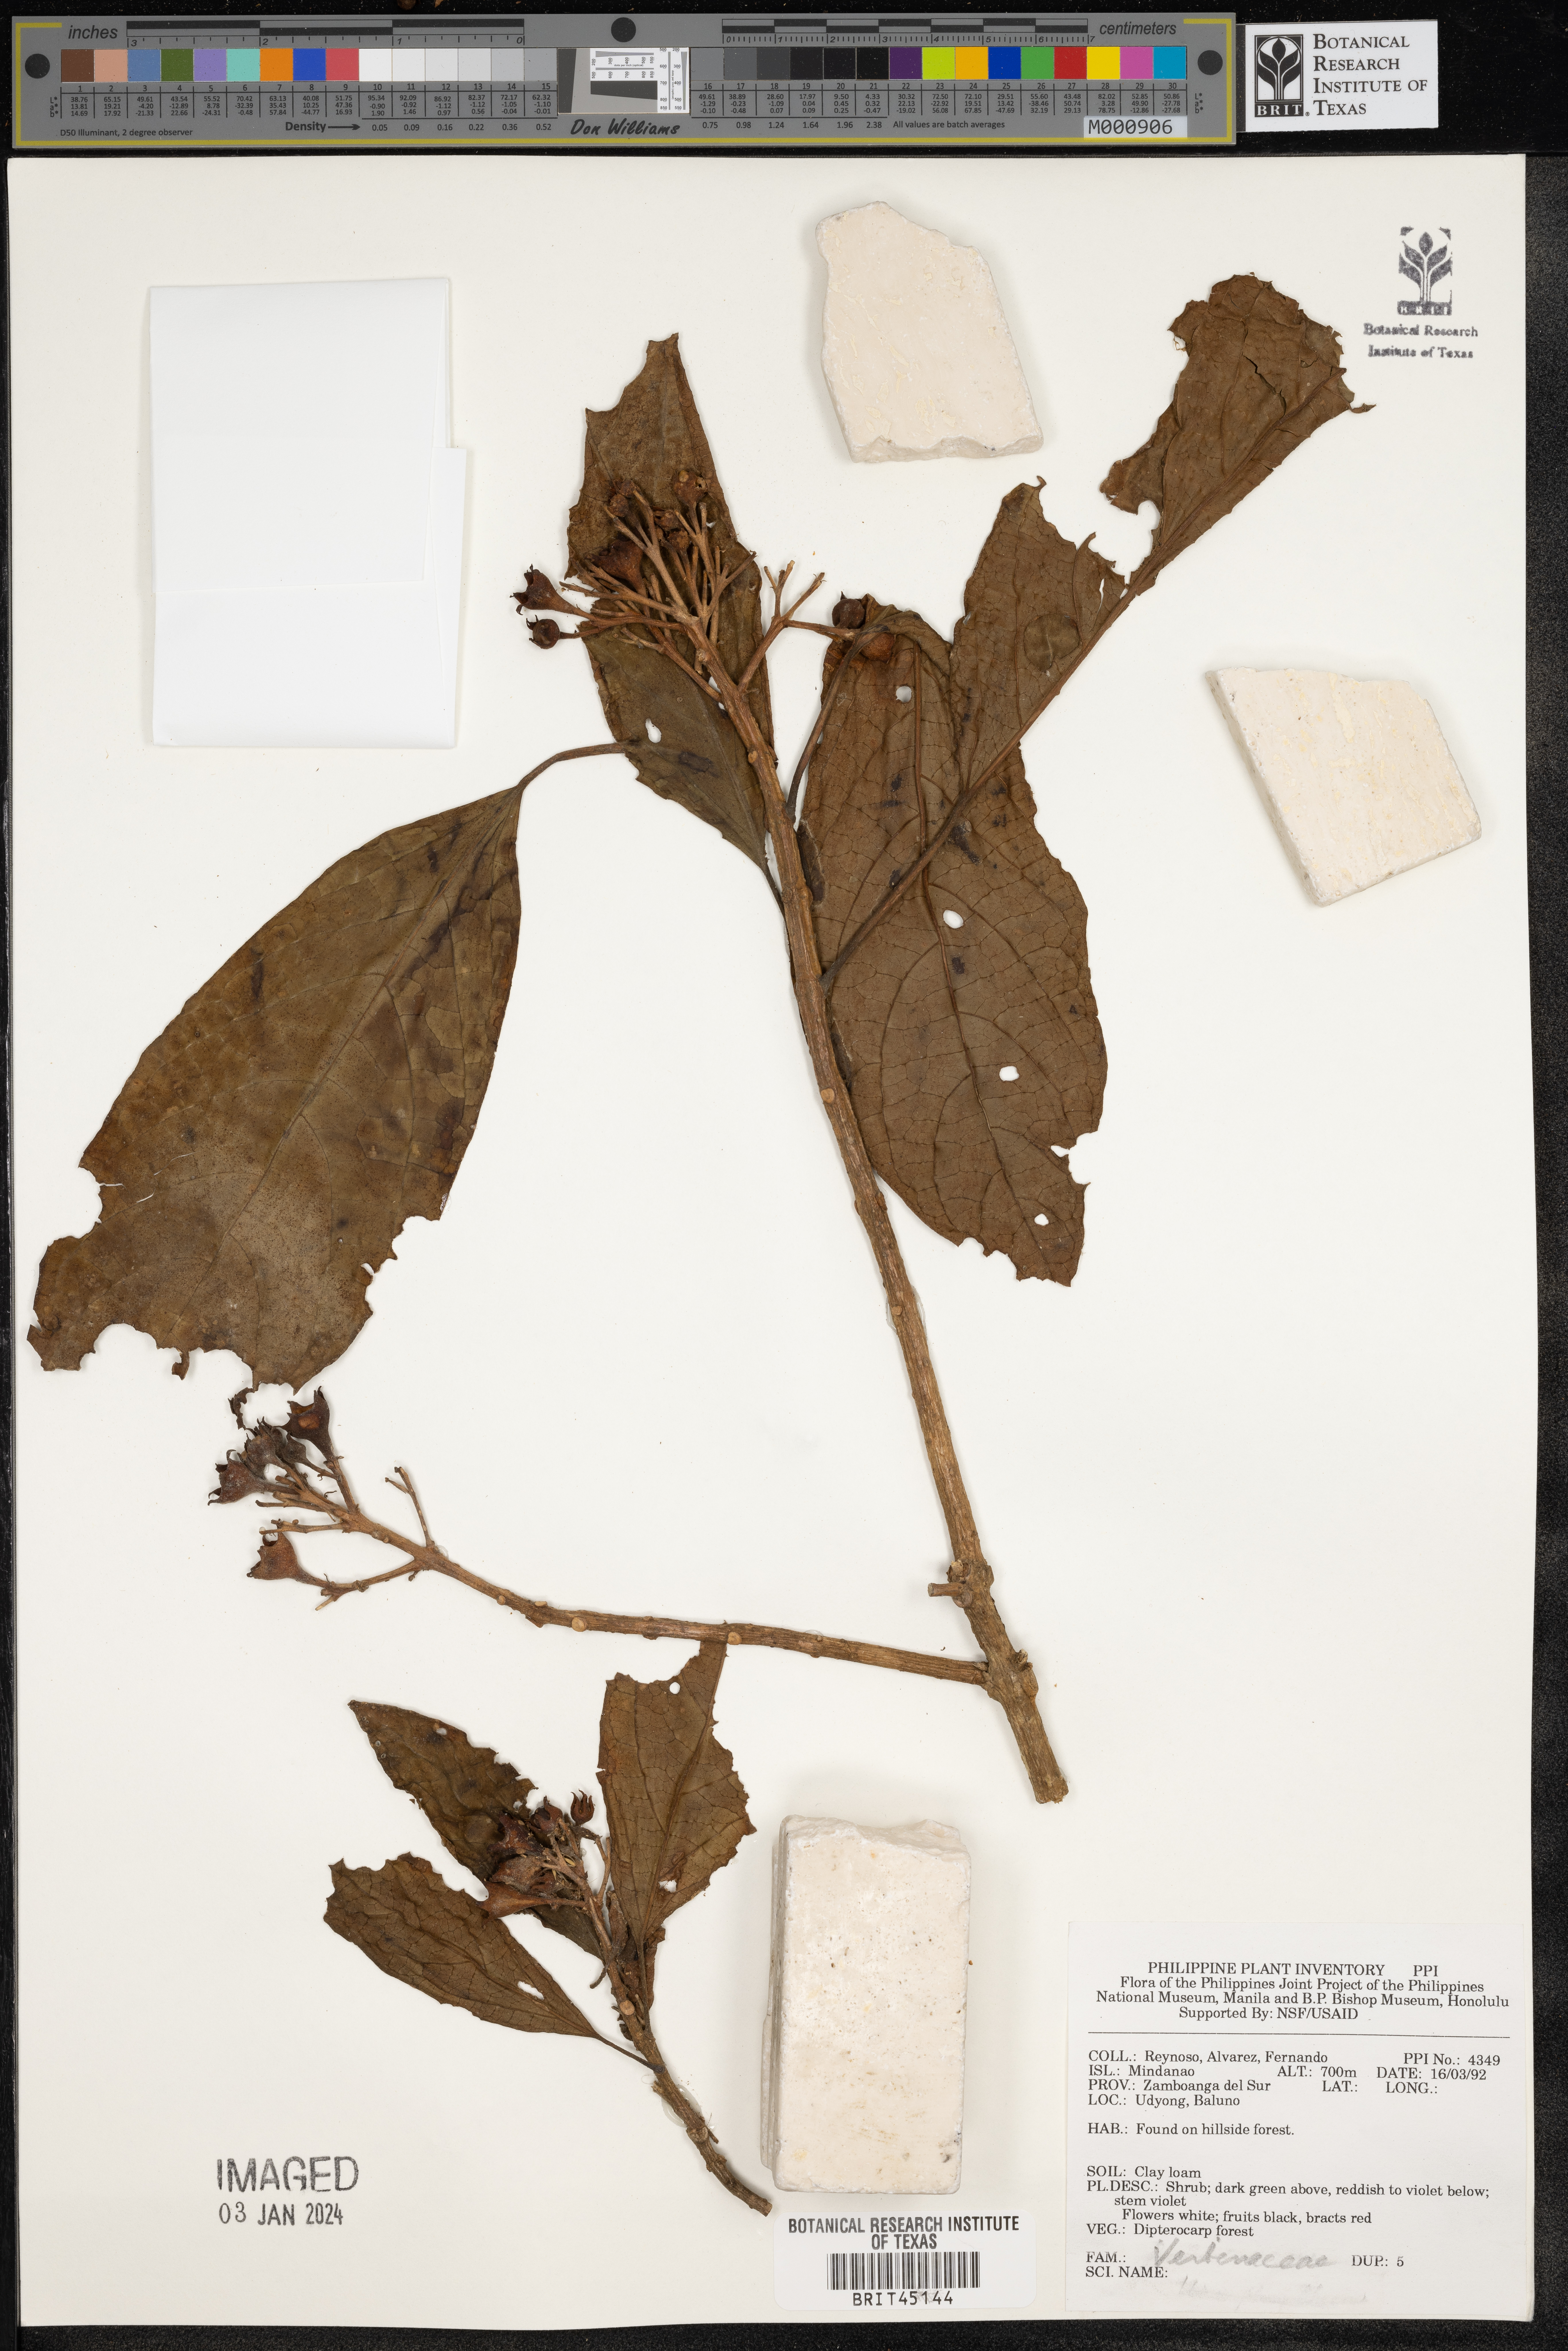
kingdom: Plantae
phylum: Tracheophyta
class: Magnoliopsida
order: Lamiales
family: Verbenaceae
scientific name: Verbenaceae
